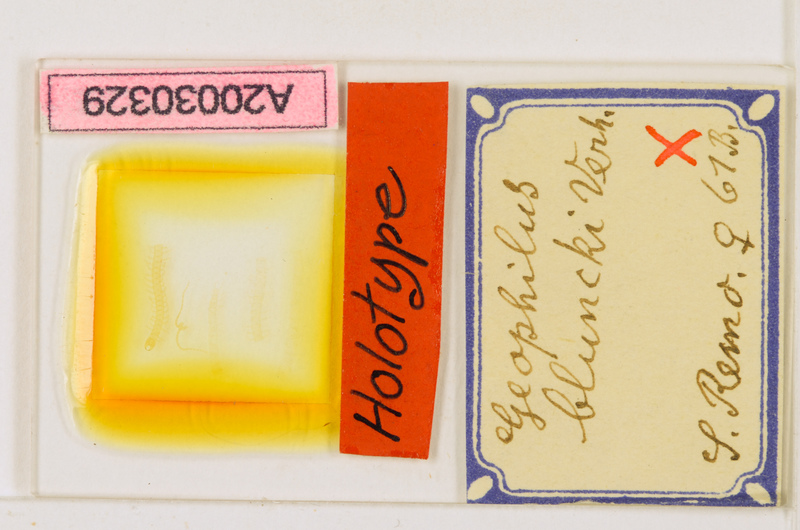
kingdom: Animalia
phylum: Arthropoda
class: Chilopoda
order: Geophilomorpha
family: Geophilidae
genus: Geophilus
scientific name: Geophilus insculptus
